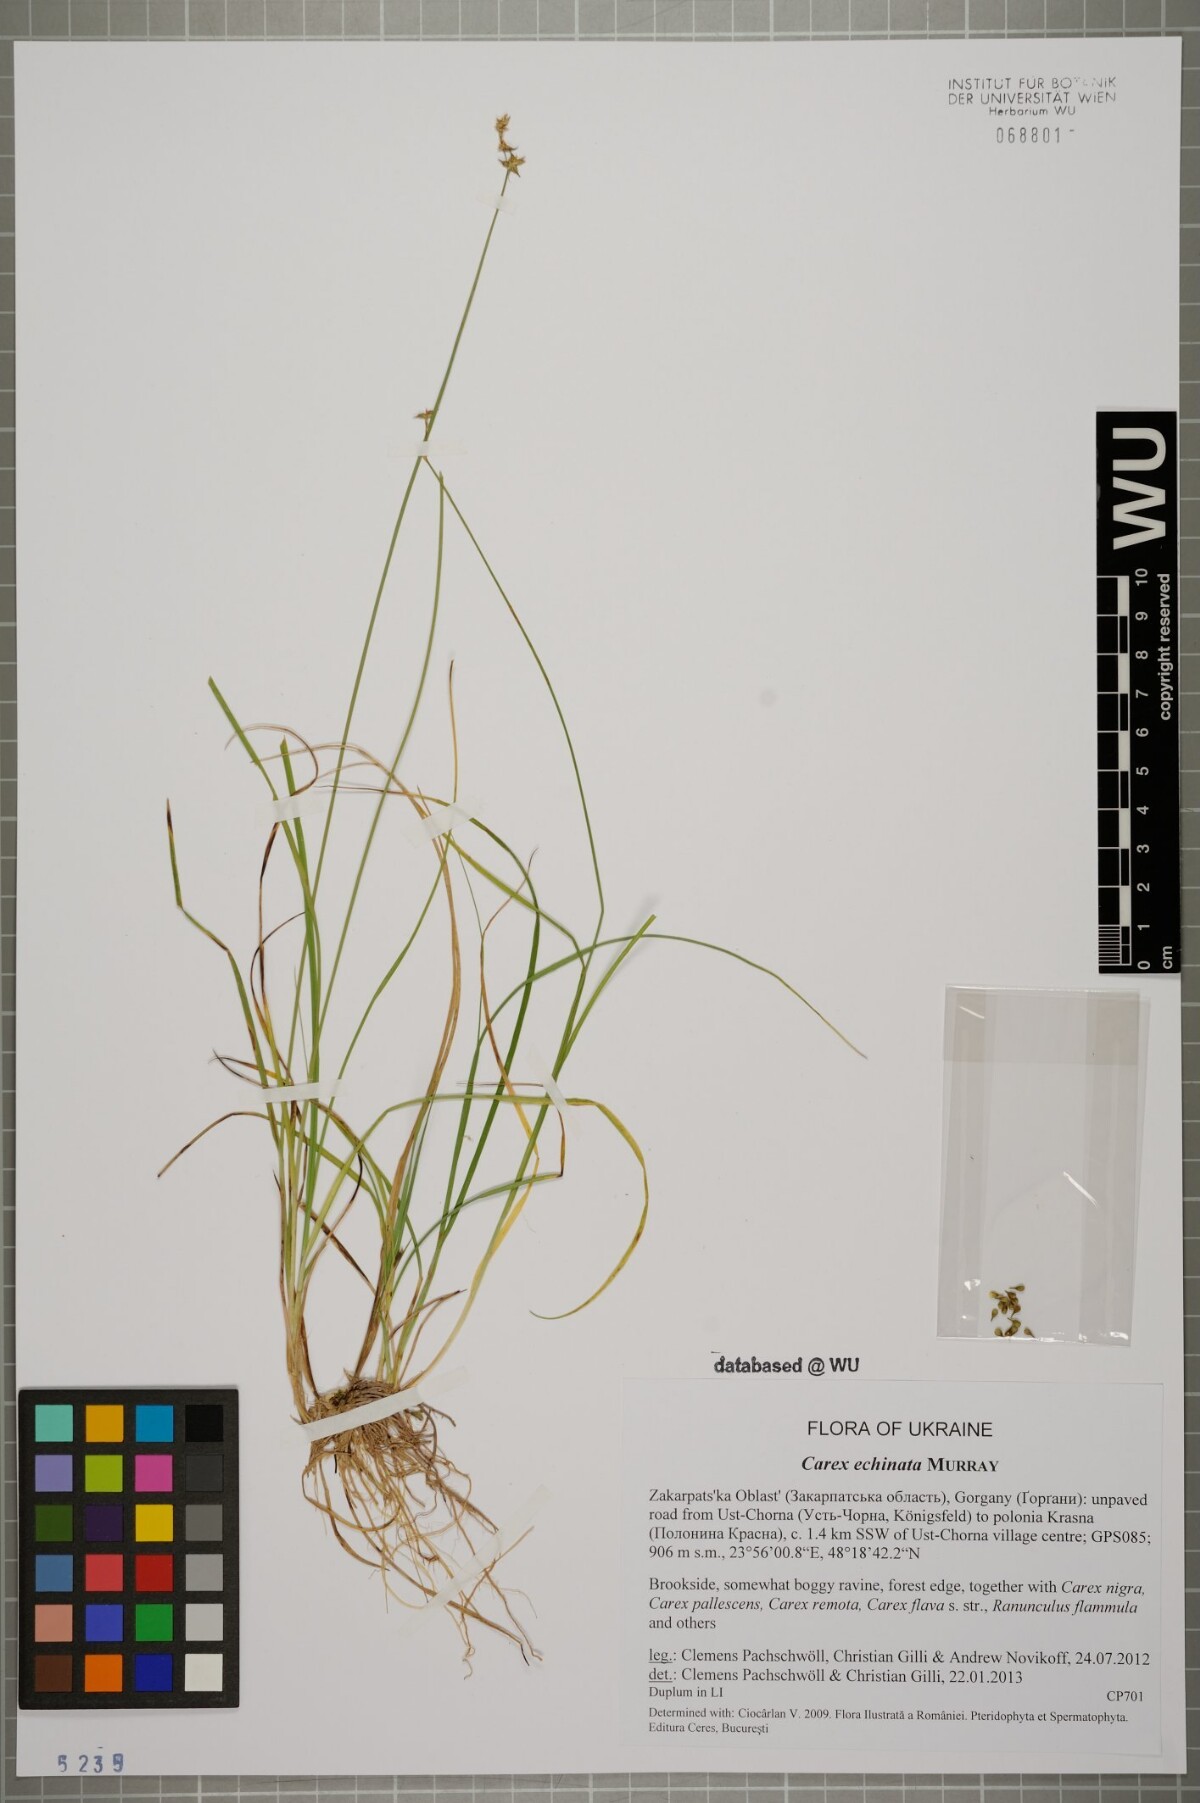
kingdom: Plantae
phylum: Tracheophyta
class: Liliopsida
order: Poales
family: Cyperaceae
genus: Carex
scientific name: Carex echinata
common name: Star sedge
